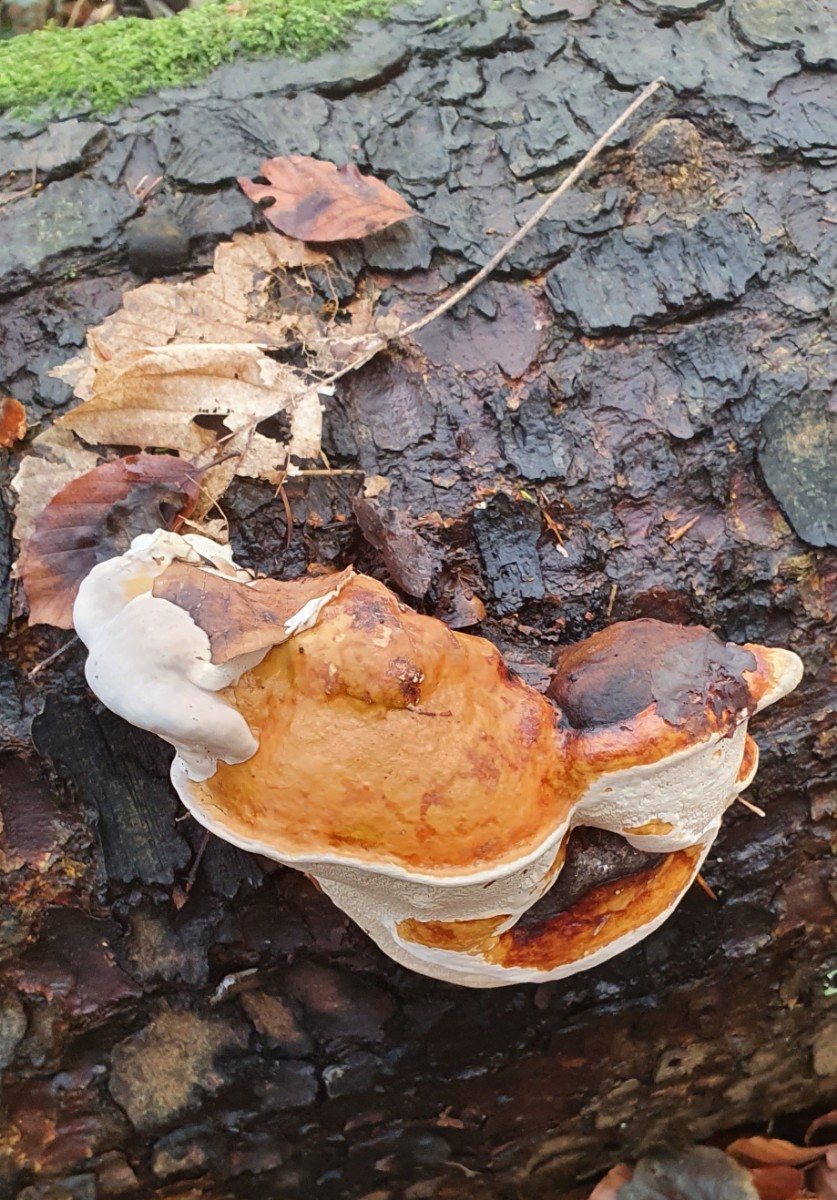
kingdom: Fungi
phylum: Basidiomycota
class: Agaricomycetes
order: Polyporales
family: Fomitopsidaceae
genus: Fomitopsis
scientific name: Fomitopsis pinicola
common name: randbæltet hovporesvamp
